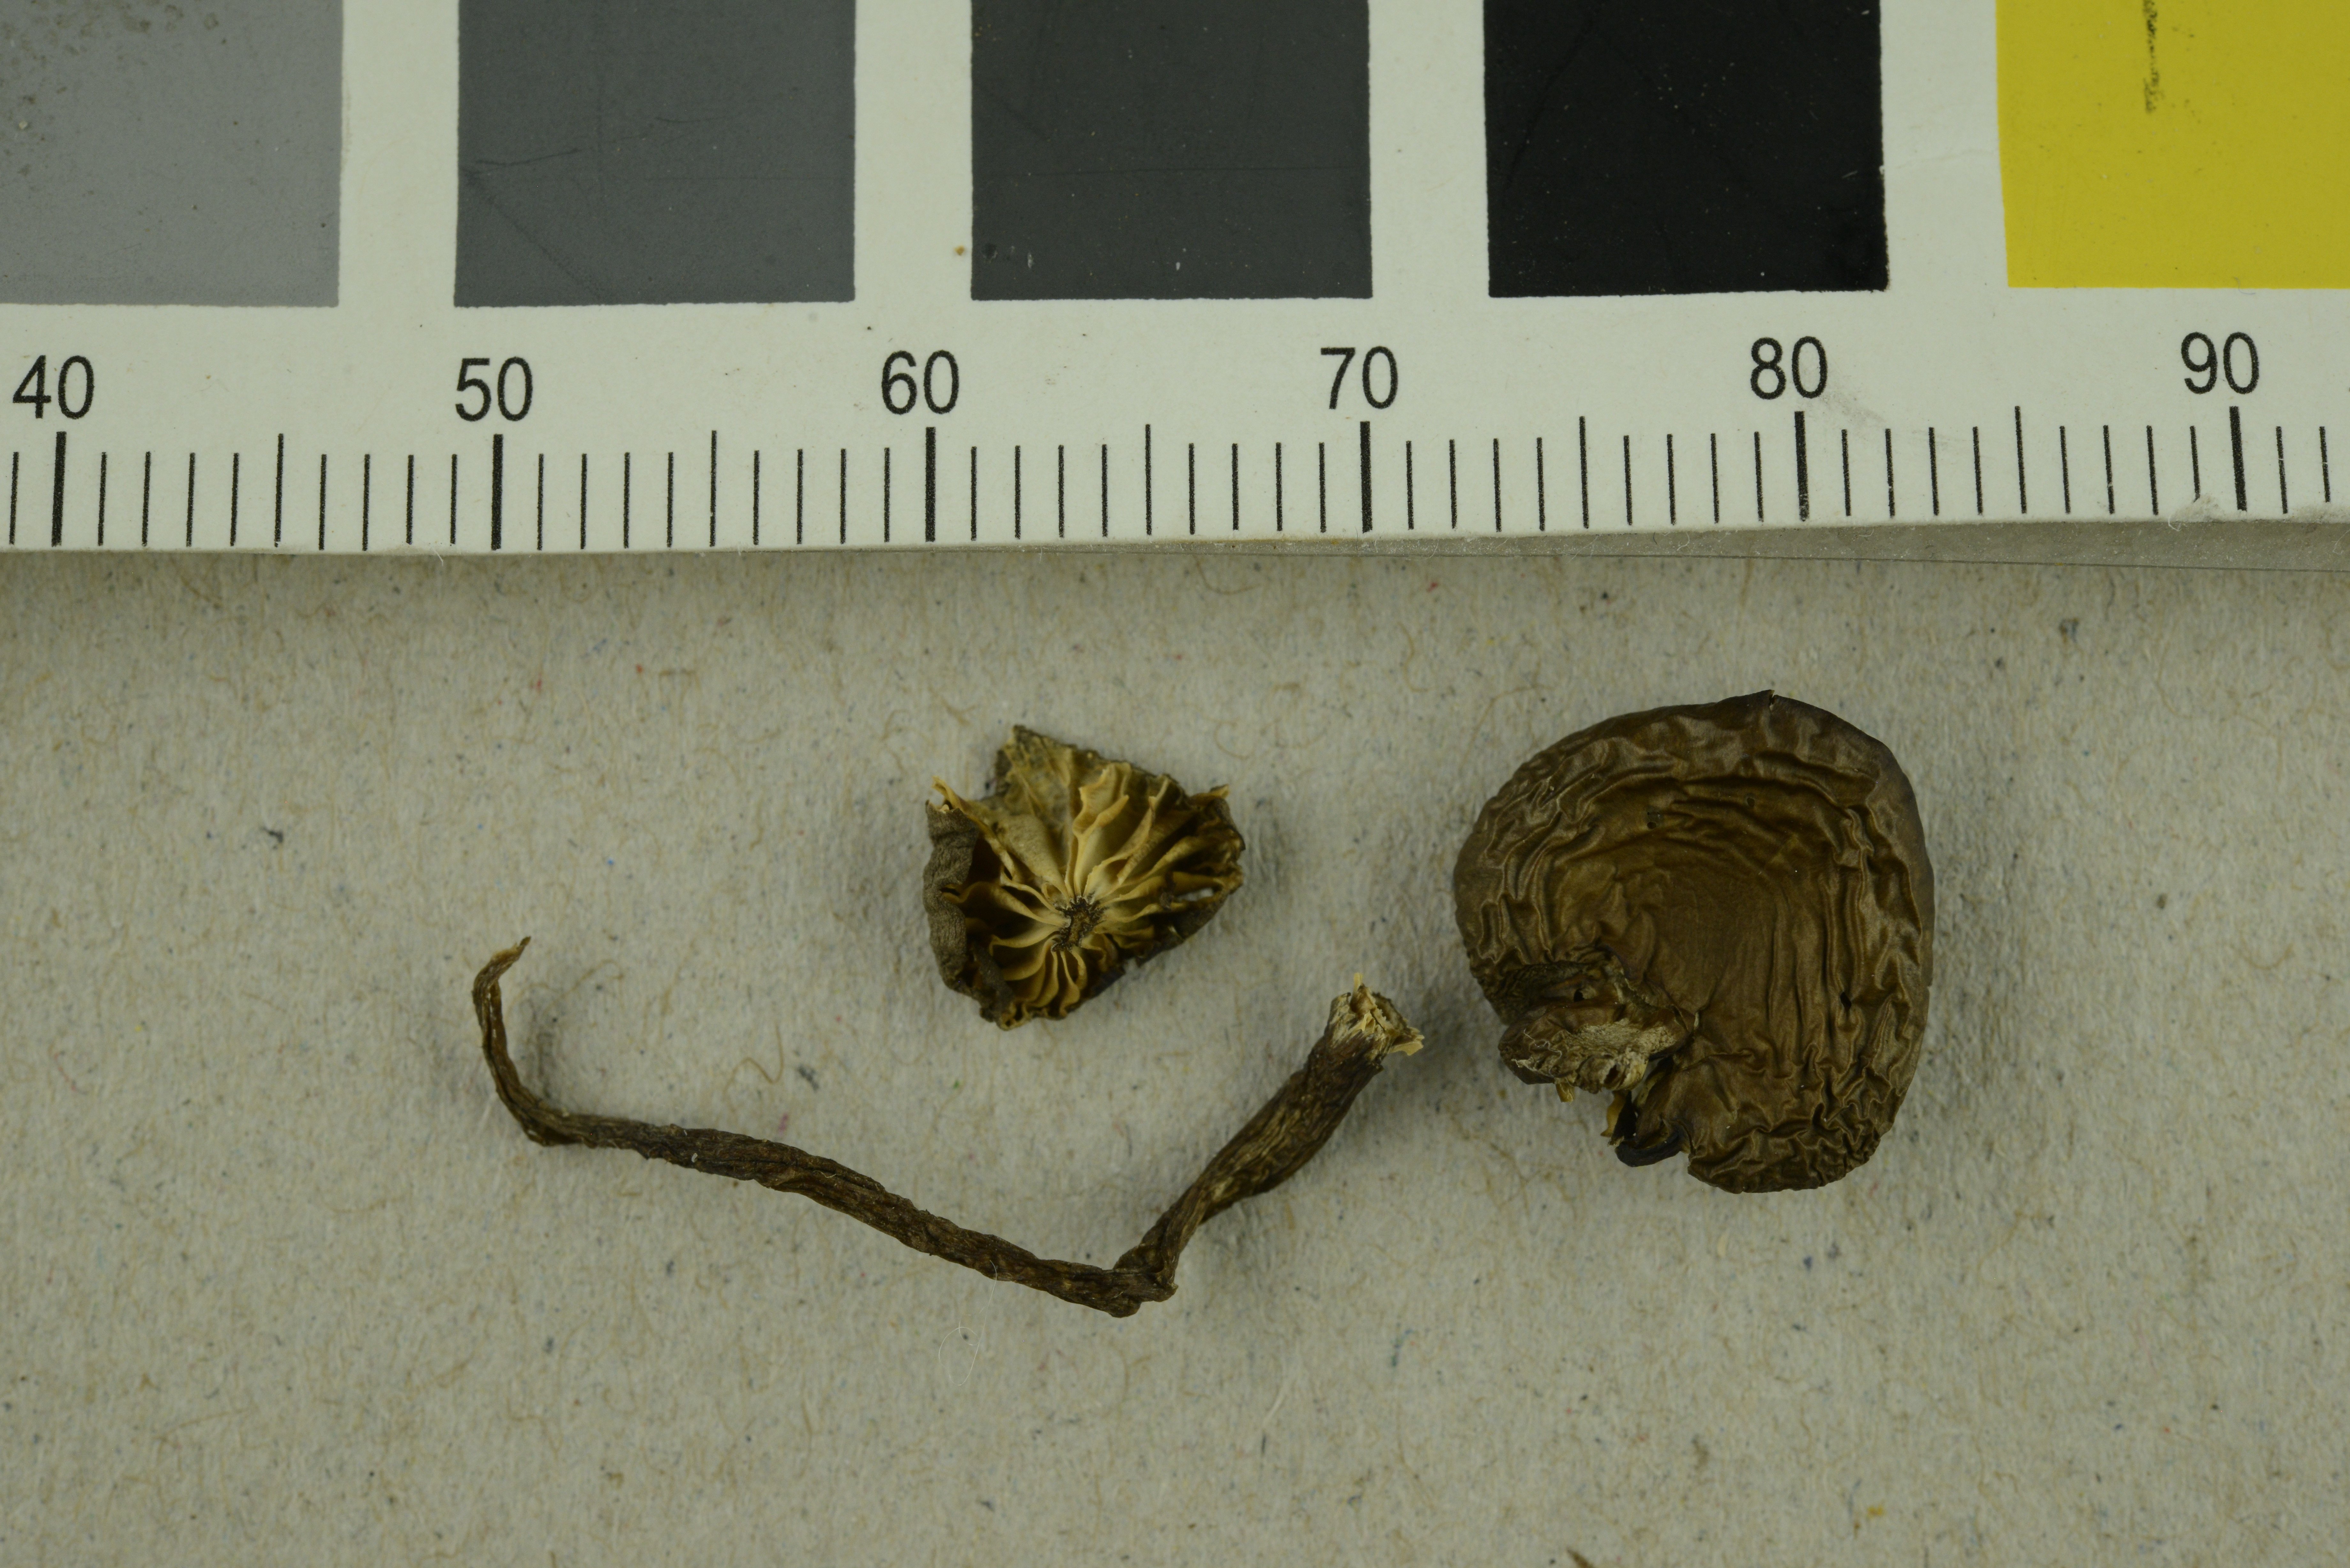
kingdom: Fungi
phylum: Basidiomycota
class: Agaricomycetes
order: Agaricales
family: Clavariaceae
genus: Camarophyllopsis
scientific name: Camarophyllopsis schulzeri
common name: Matt fanvault
